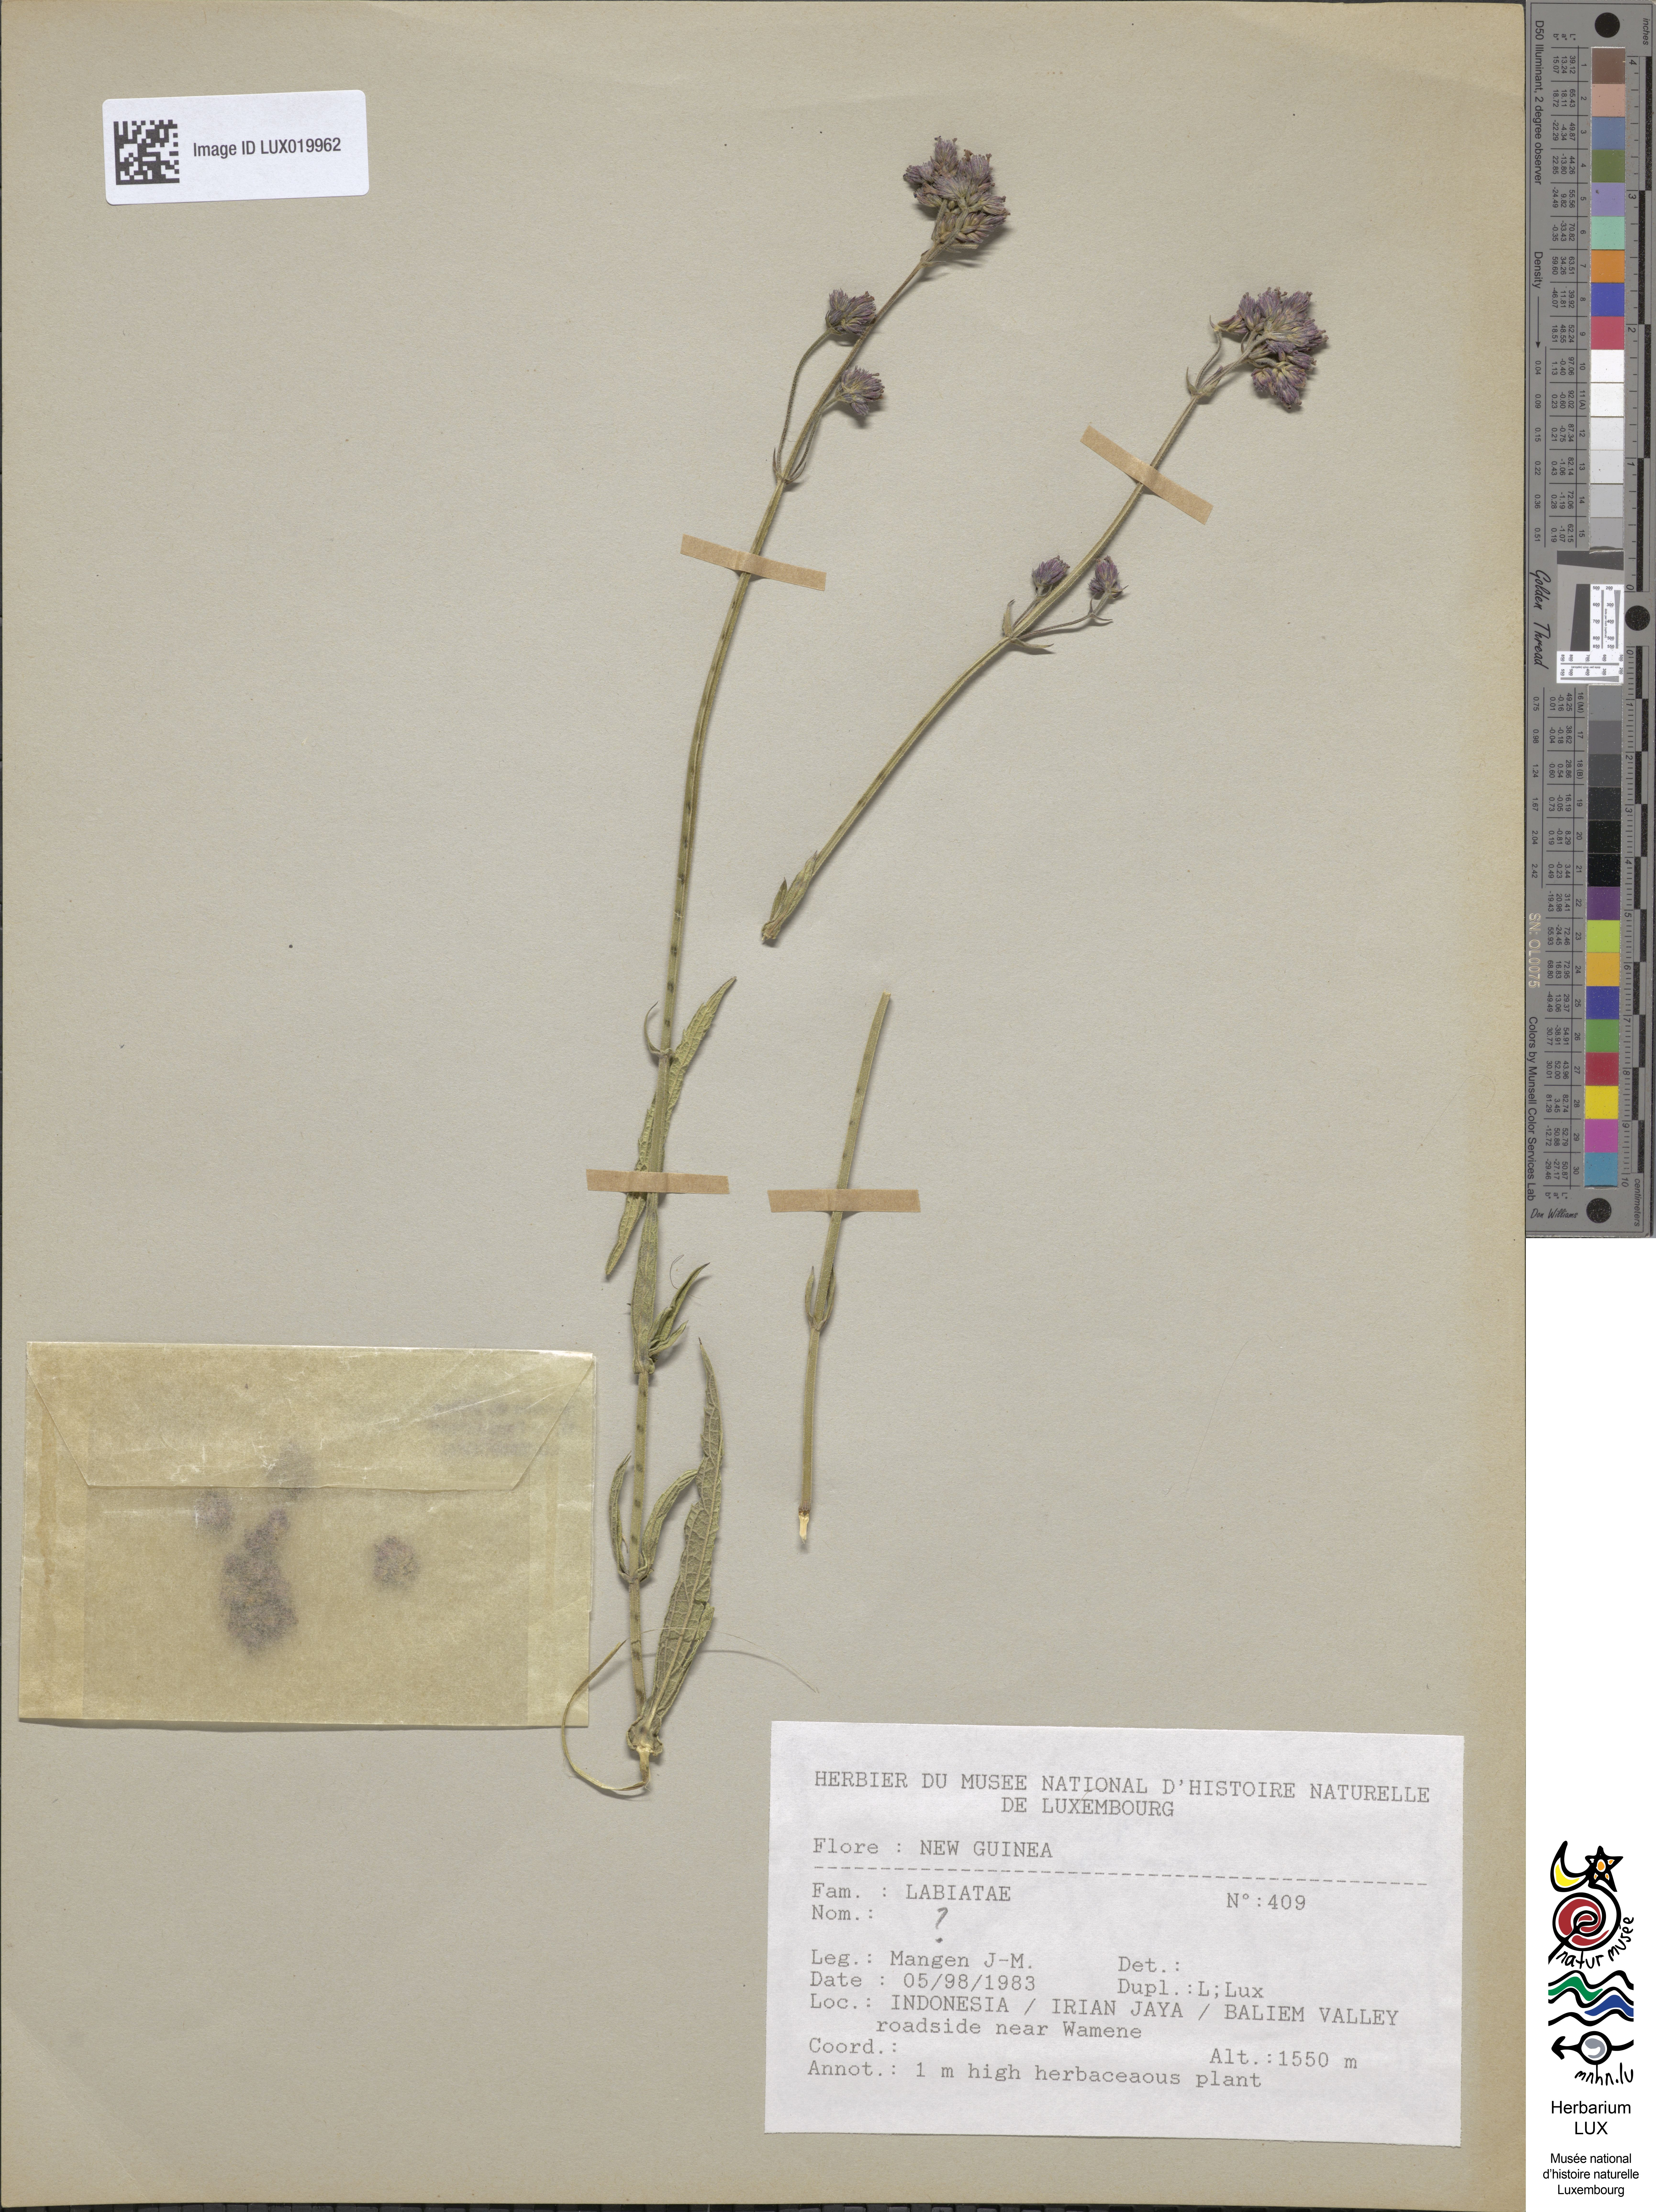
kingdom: Plantae
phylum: Tracheophyta
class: Magnoliopsida
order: Lamiales
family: Lamiaceae
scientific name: Lamiaceae
